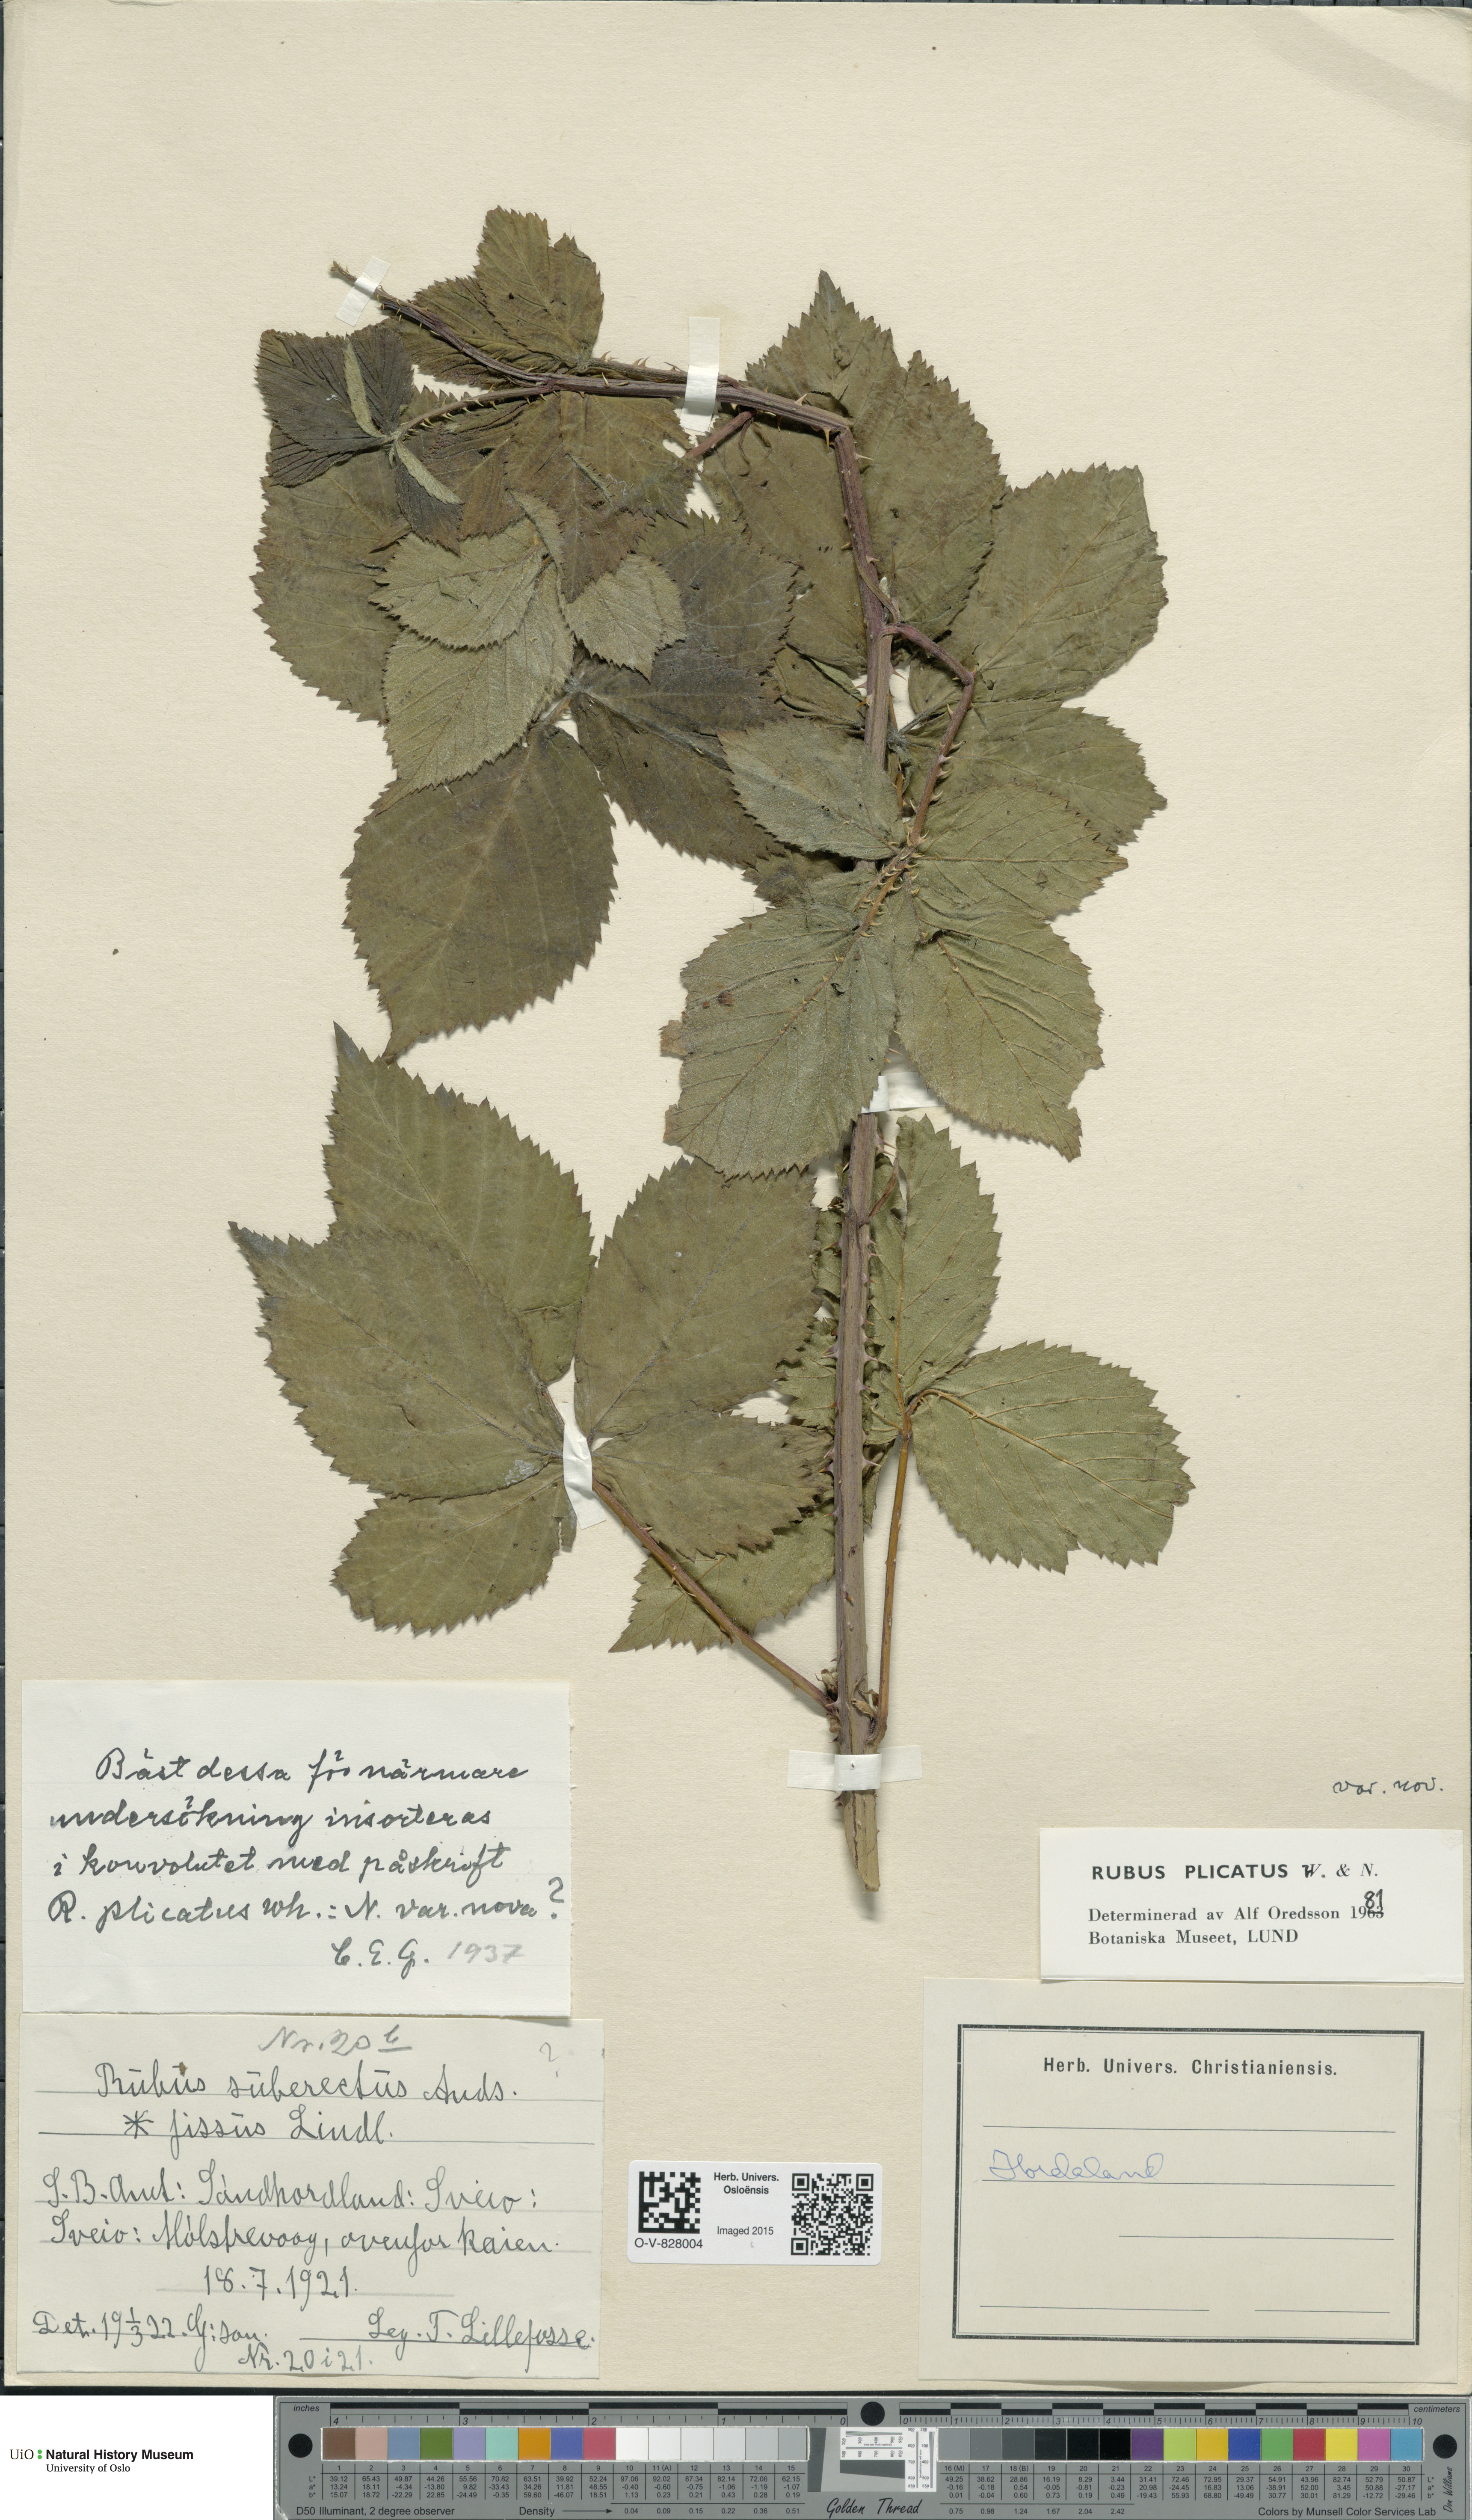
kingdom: Plantae
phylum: Tracheophyta
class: Magnoliopsida
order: Rosales
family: Rosaceae
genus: Rubus
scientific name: Rubus fruticosus
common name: Blackberry, bramble
